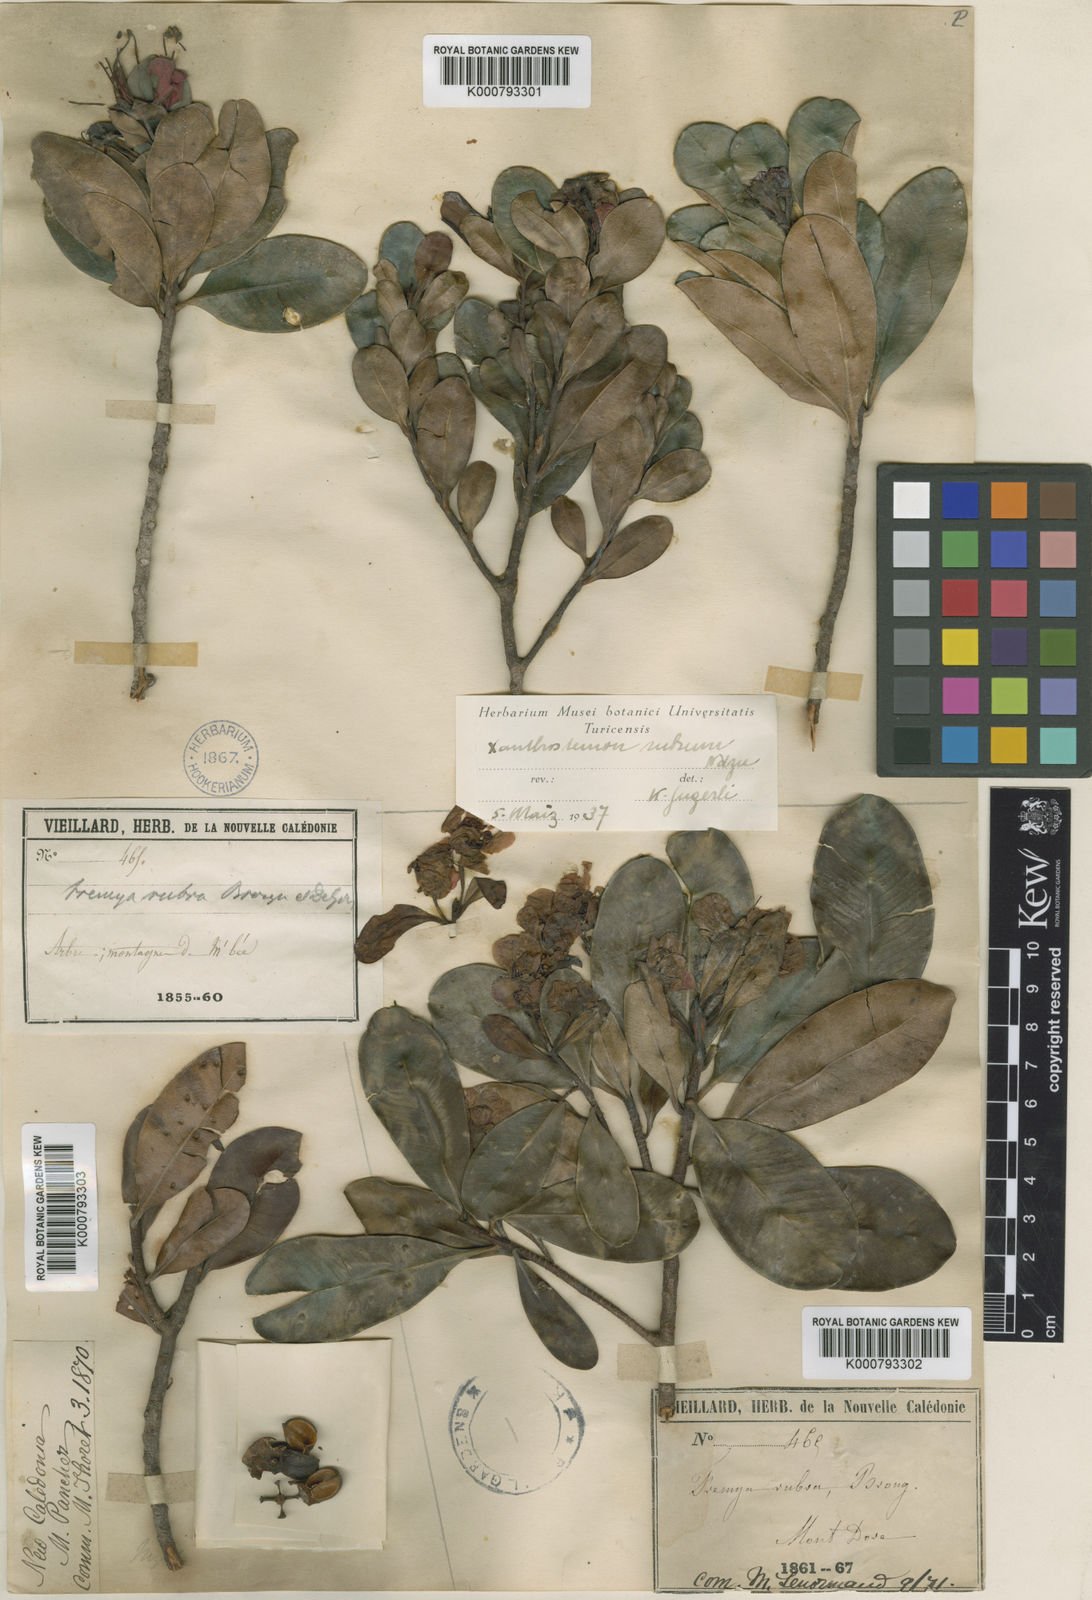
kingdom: Plantae
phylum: Tracheophyta
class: Magnoliopsida
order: Myrtales
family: Myrtaceae
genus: Xanthostemon
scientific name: Xanthostemon
